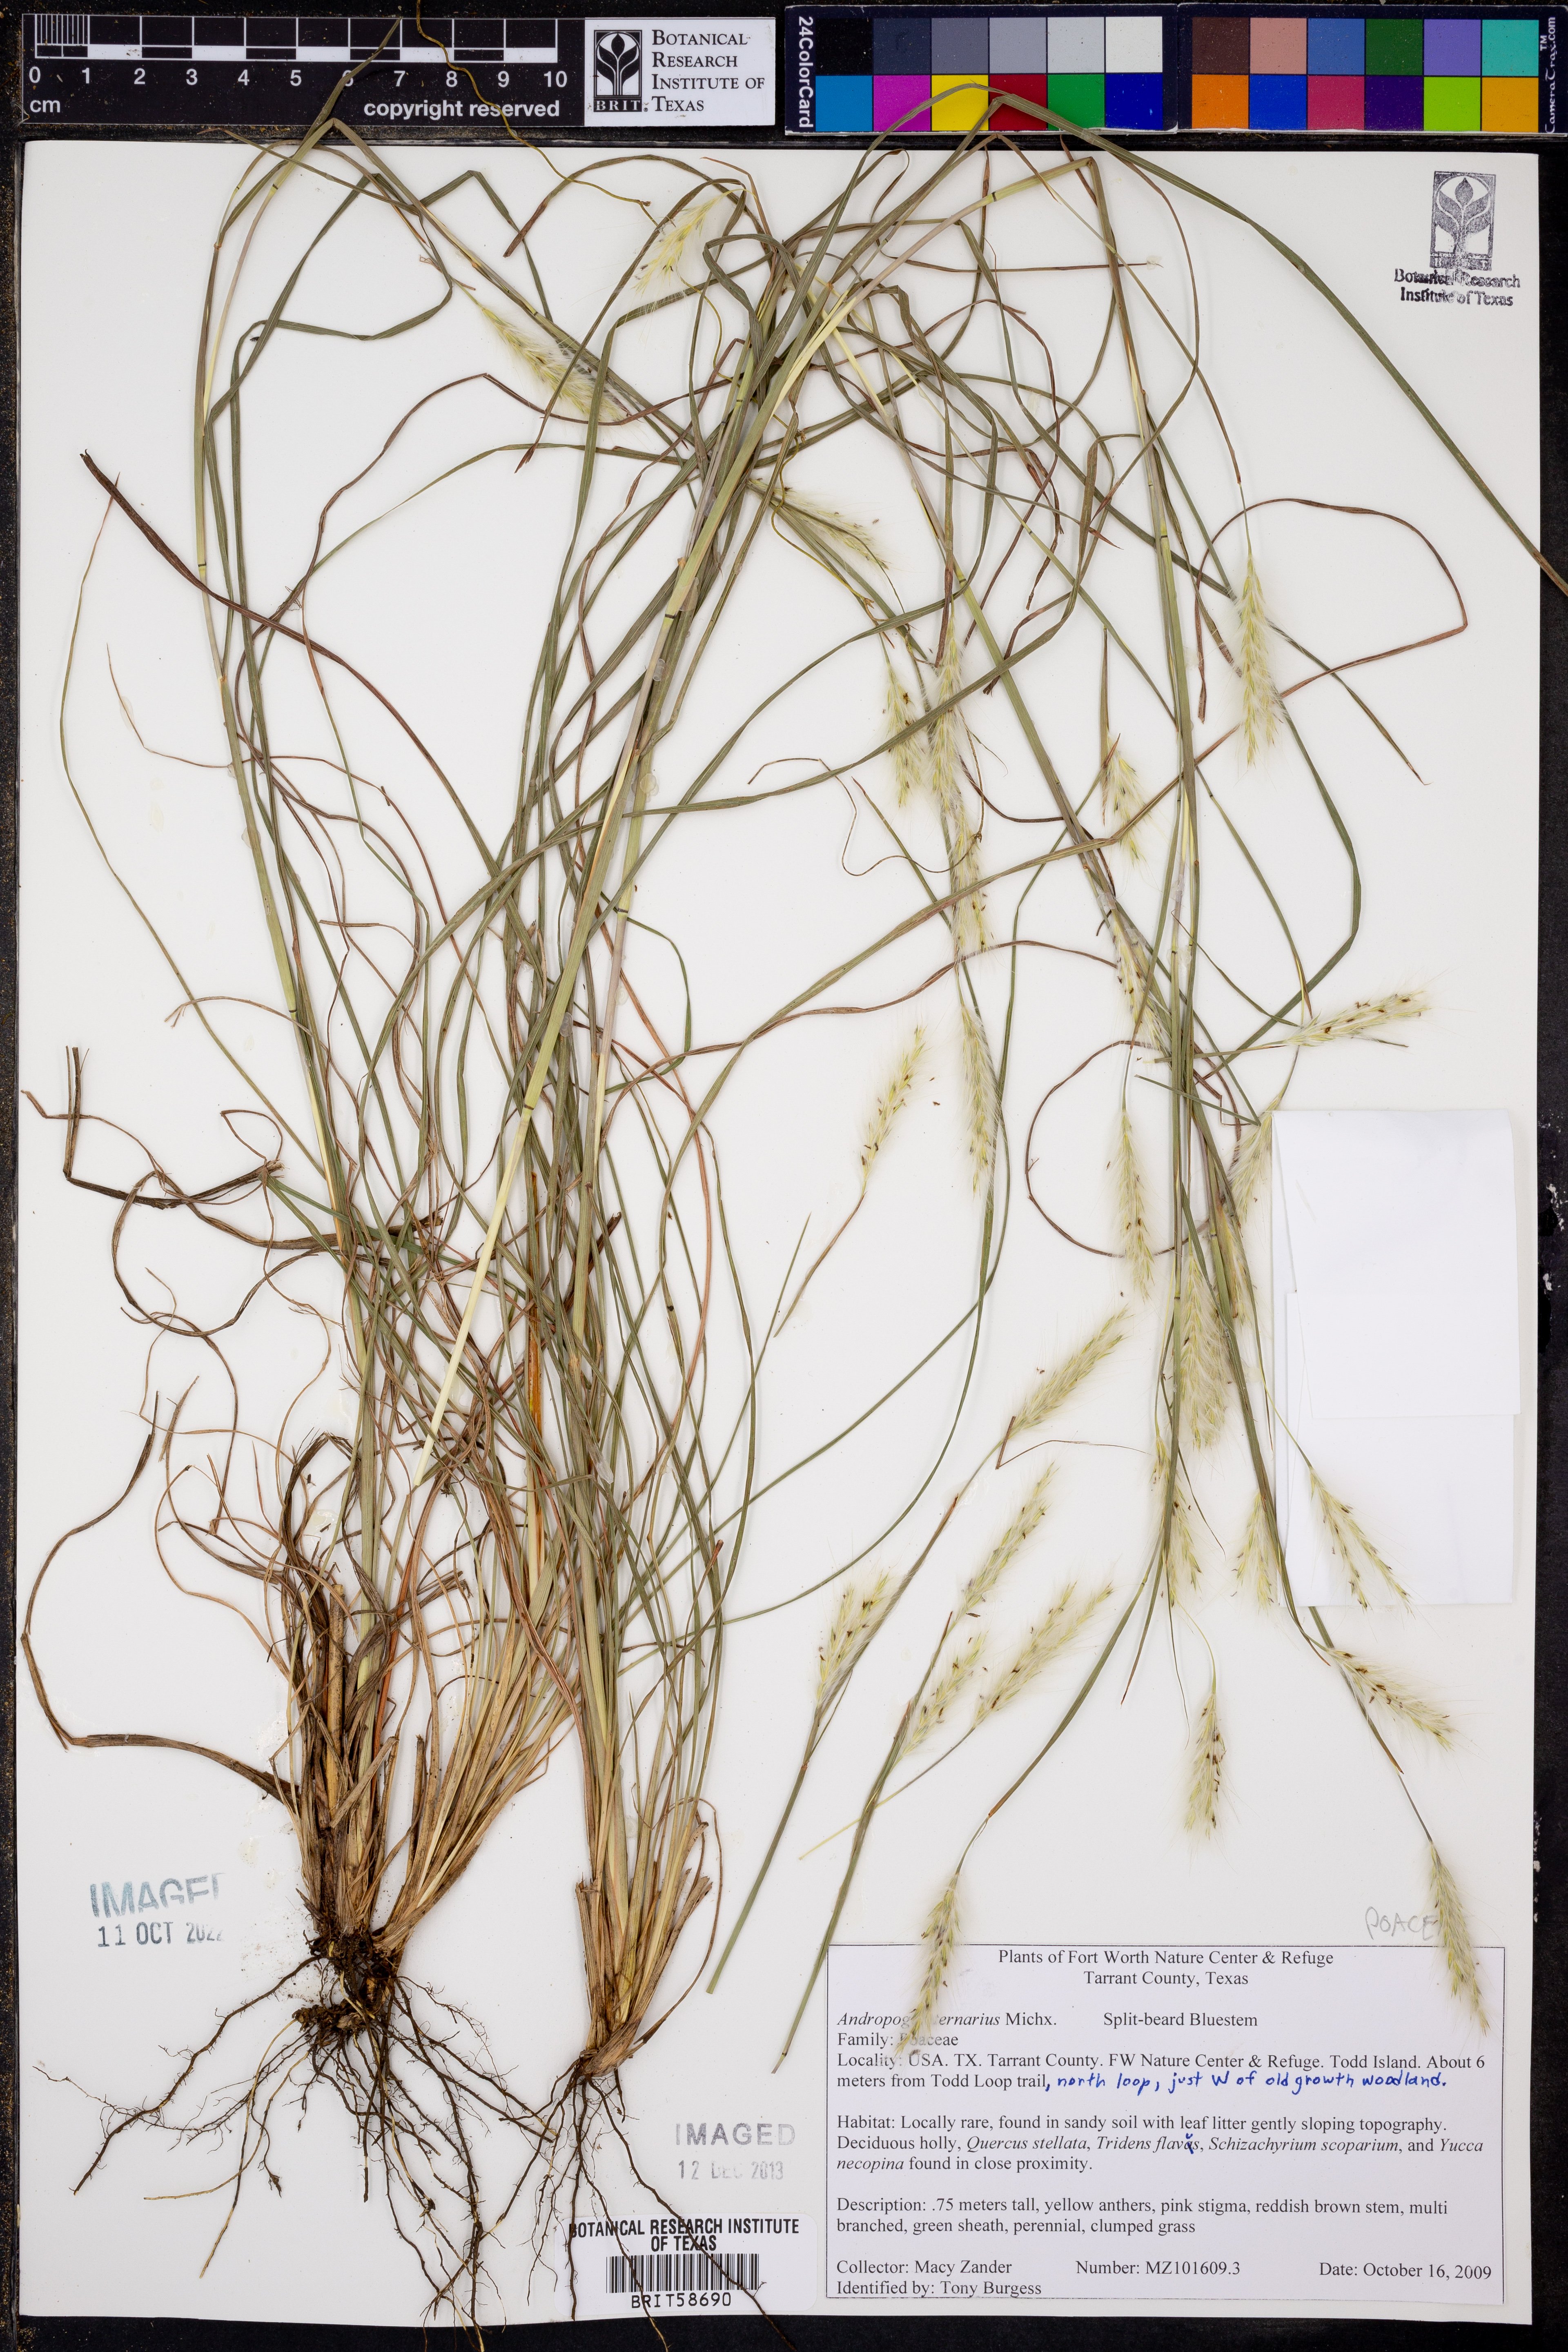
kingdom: Plantae
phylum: Tracheophyta
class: Liliopsida
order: Poales
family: Poaceae
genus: Andropogon
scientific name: Andropogon ternarius
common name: Split bluestem
